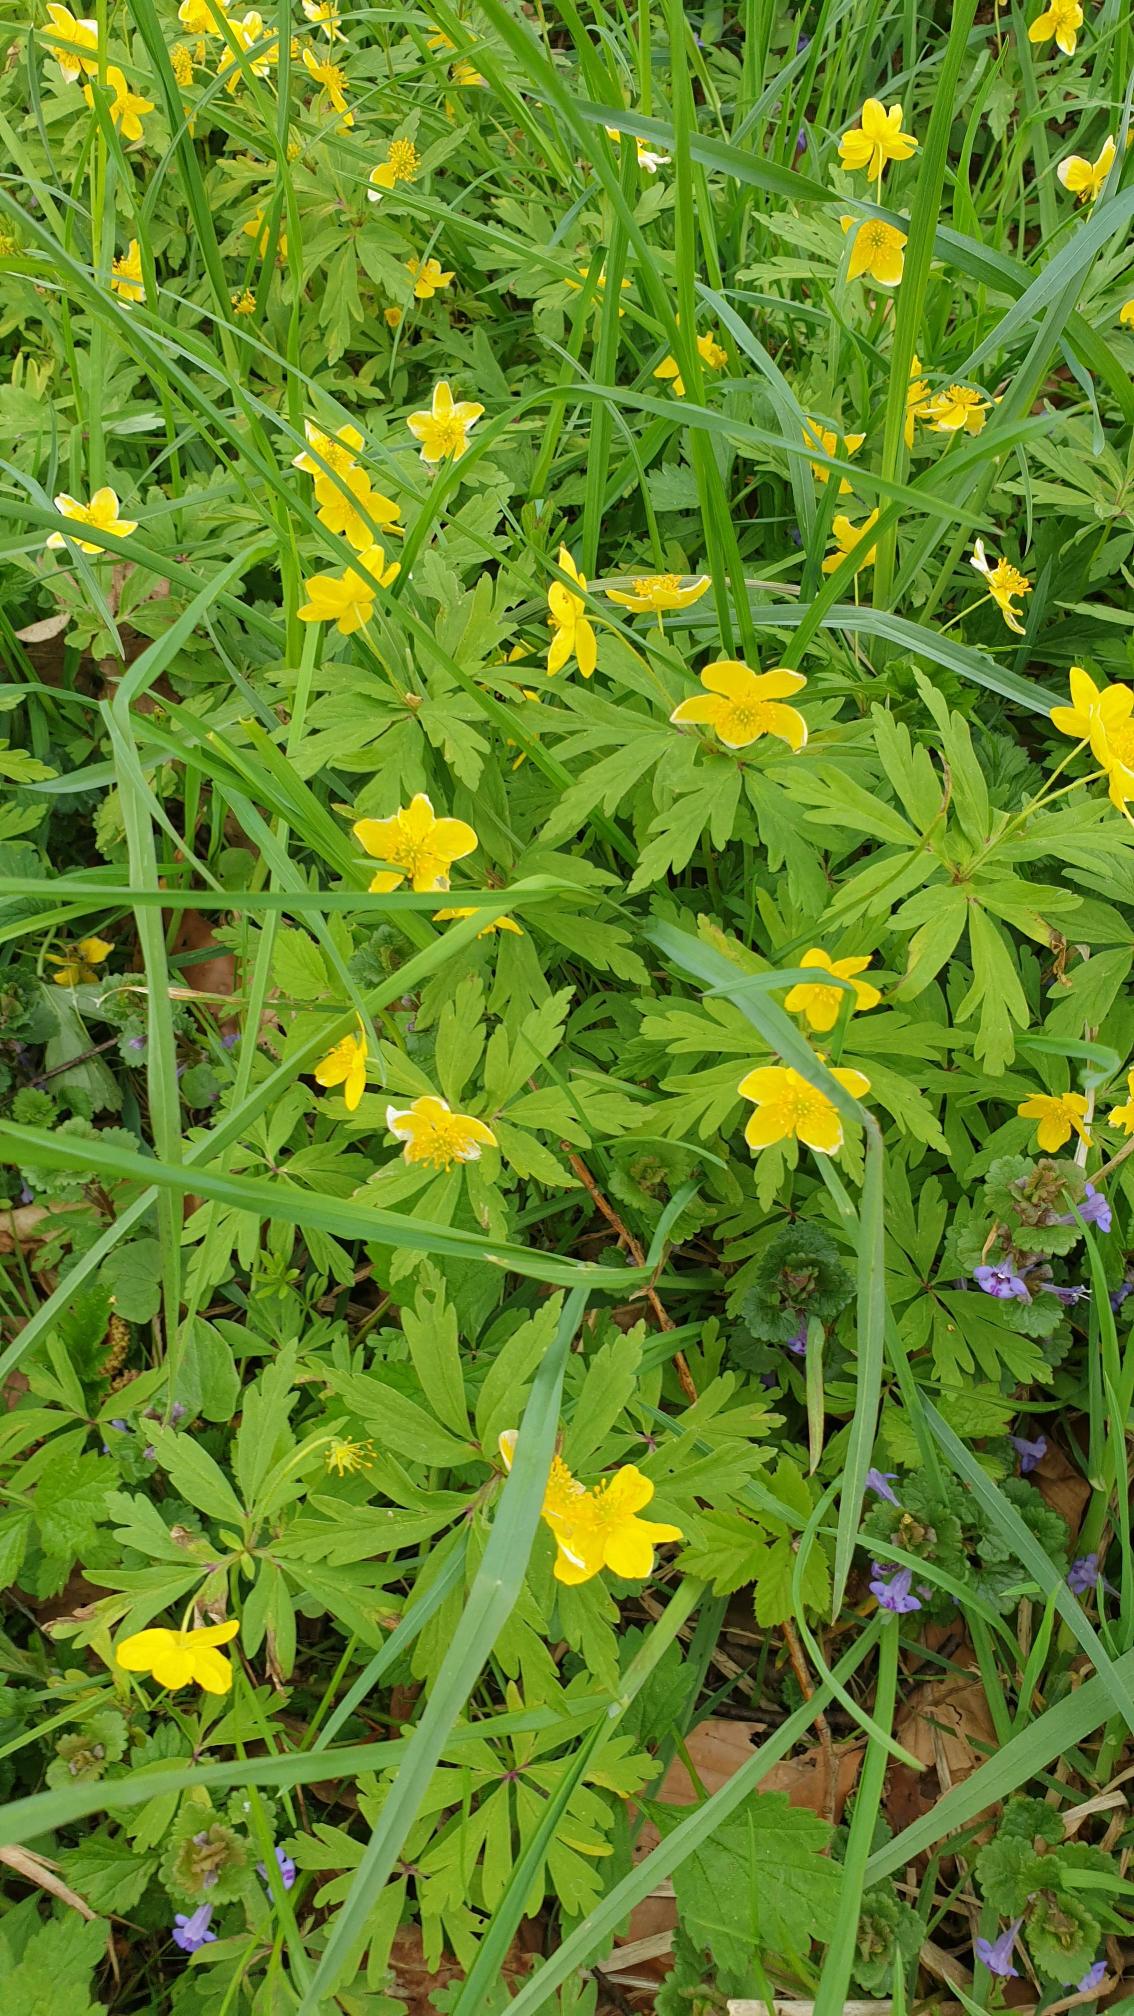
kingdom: Plantae
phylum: Tracheophyta
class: Magnoliopsida
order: Ranunculales
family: Ranunculaceae
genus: Anemone
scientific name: Anemone ranunculoides
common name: Gul anemone
